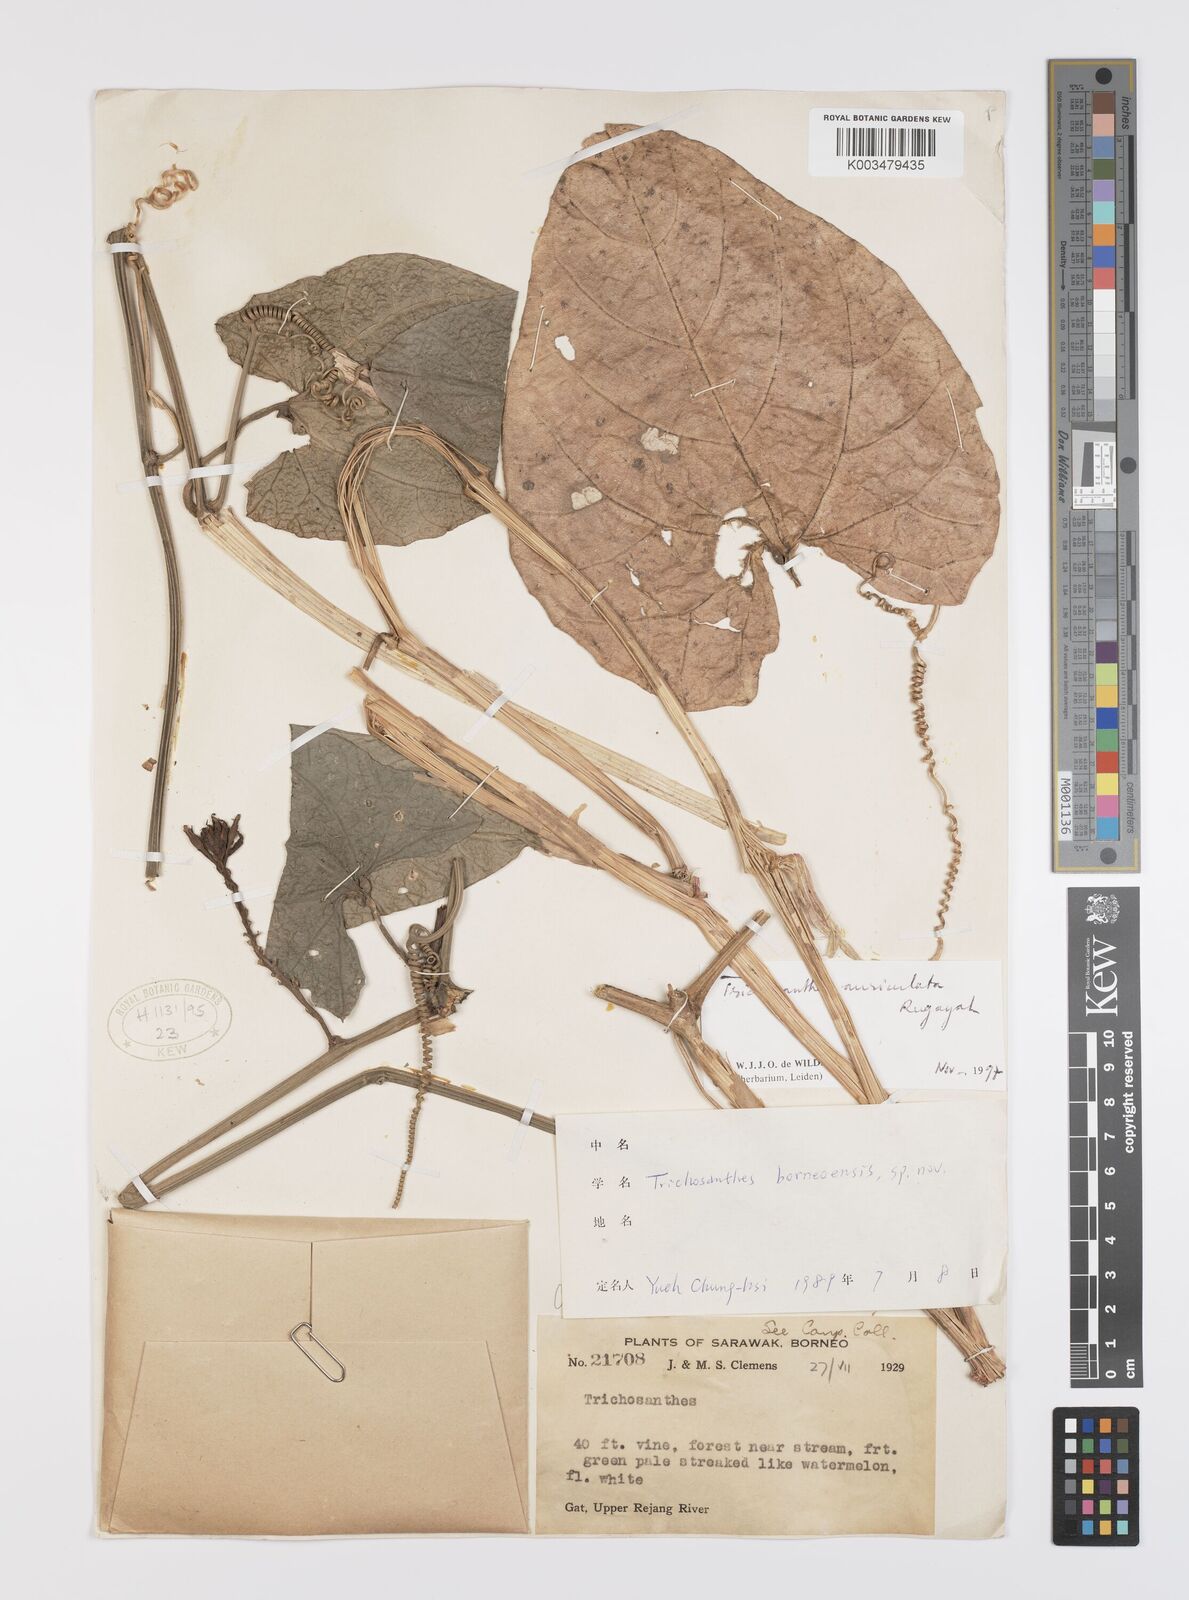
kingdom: Plantae
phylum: Tracheophyta
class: Magnoliopsida
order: Cucurbitales
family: Cucurbitaceae
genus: Trichosanthes
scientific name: Trichosanthes auriculata
